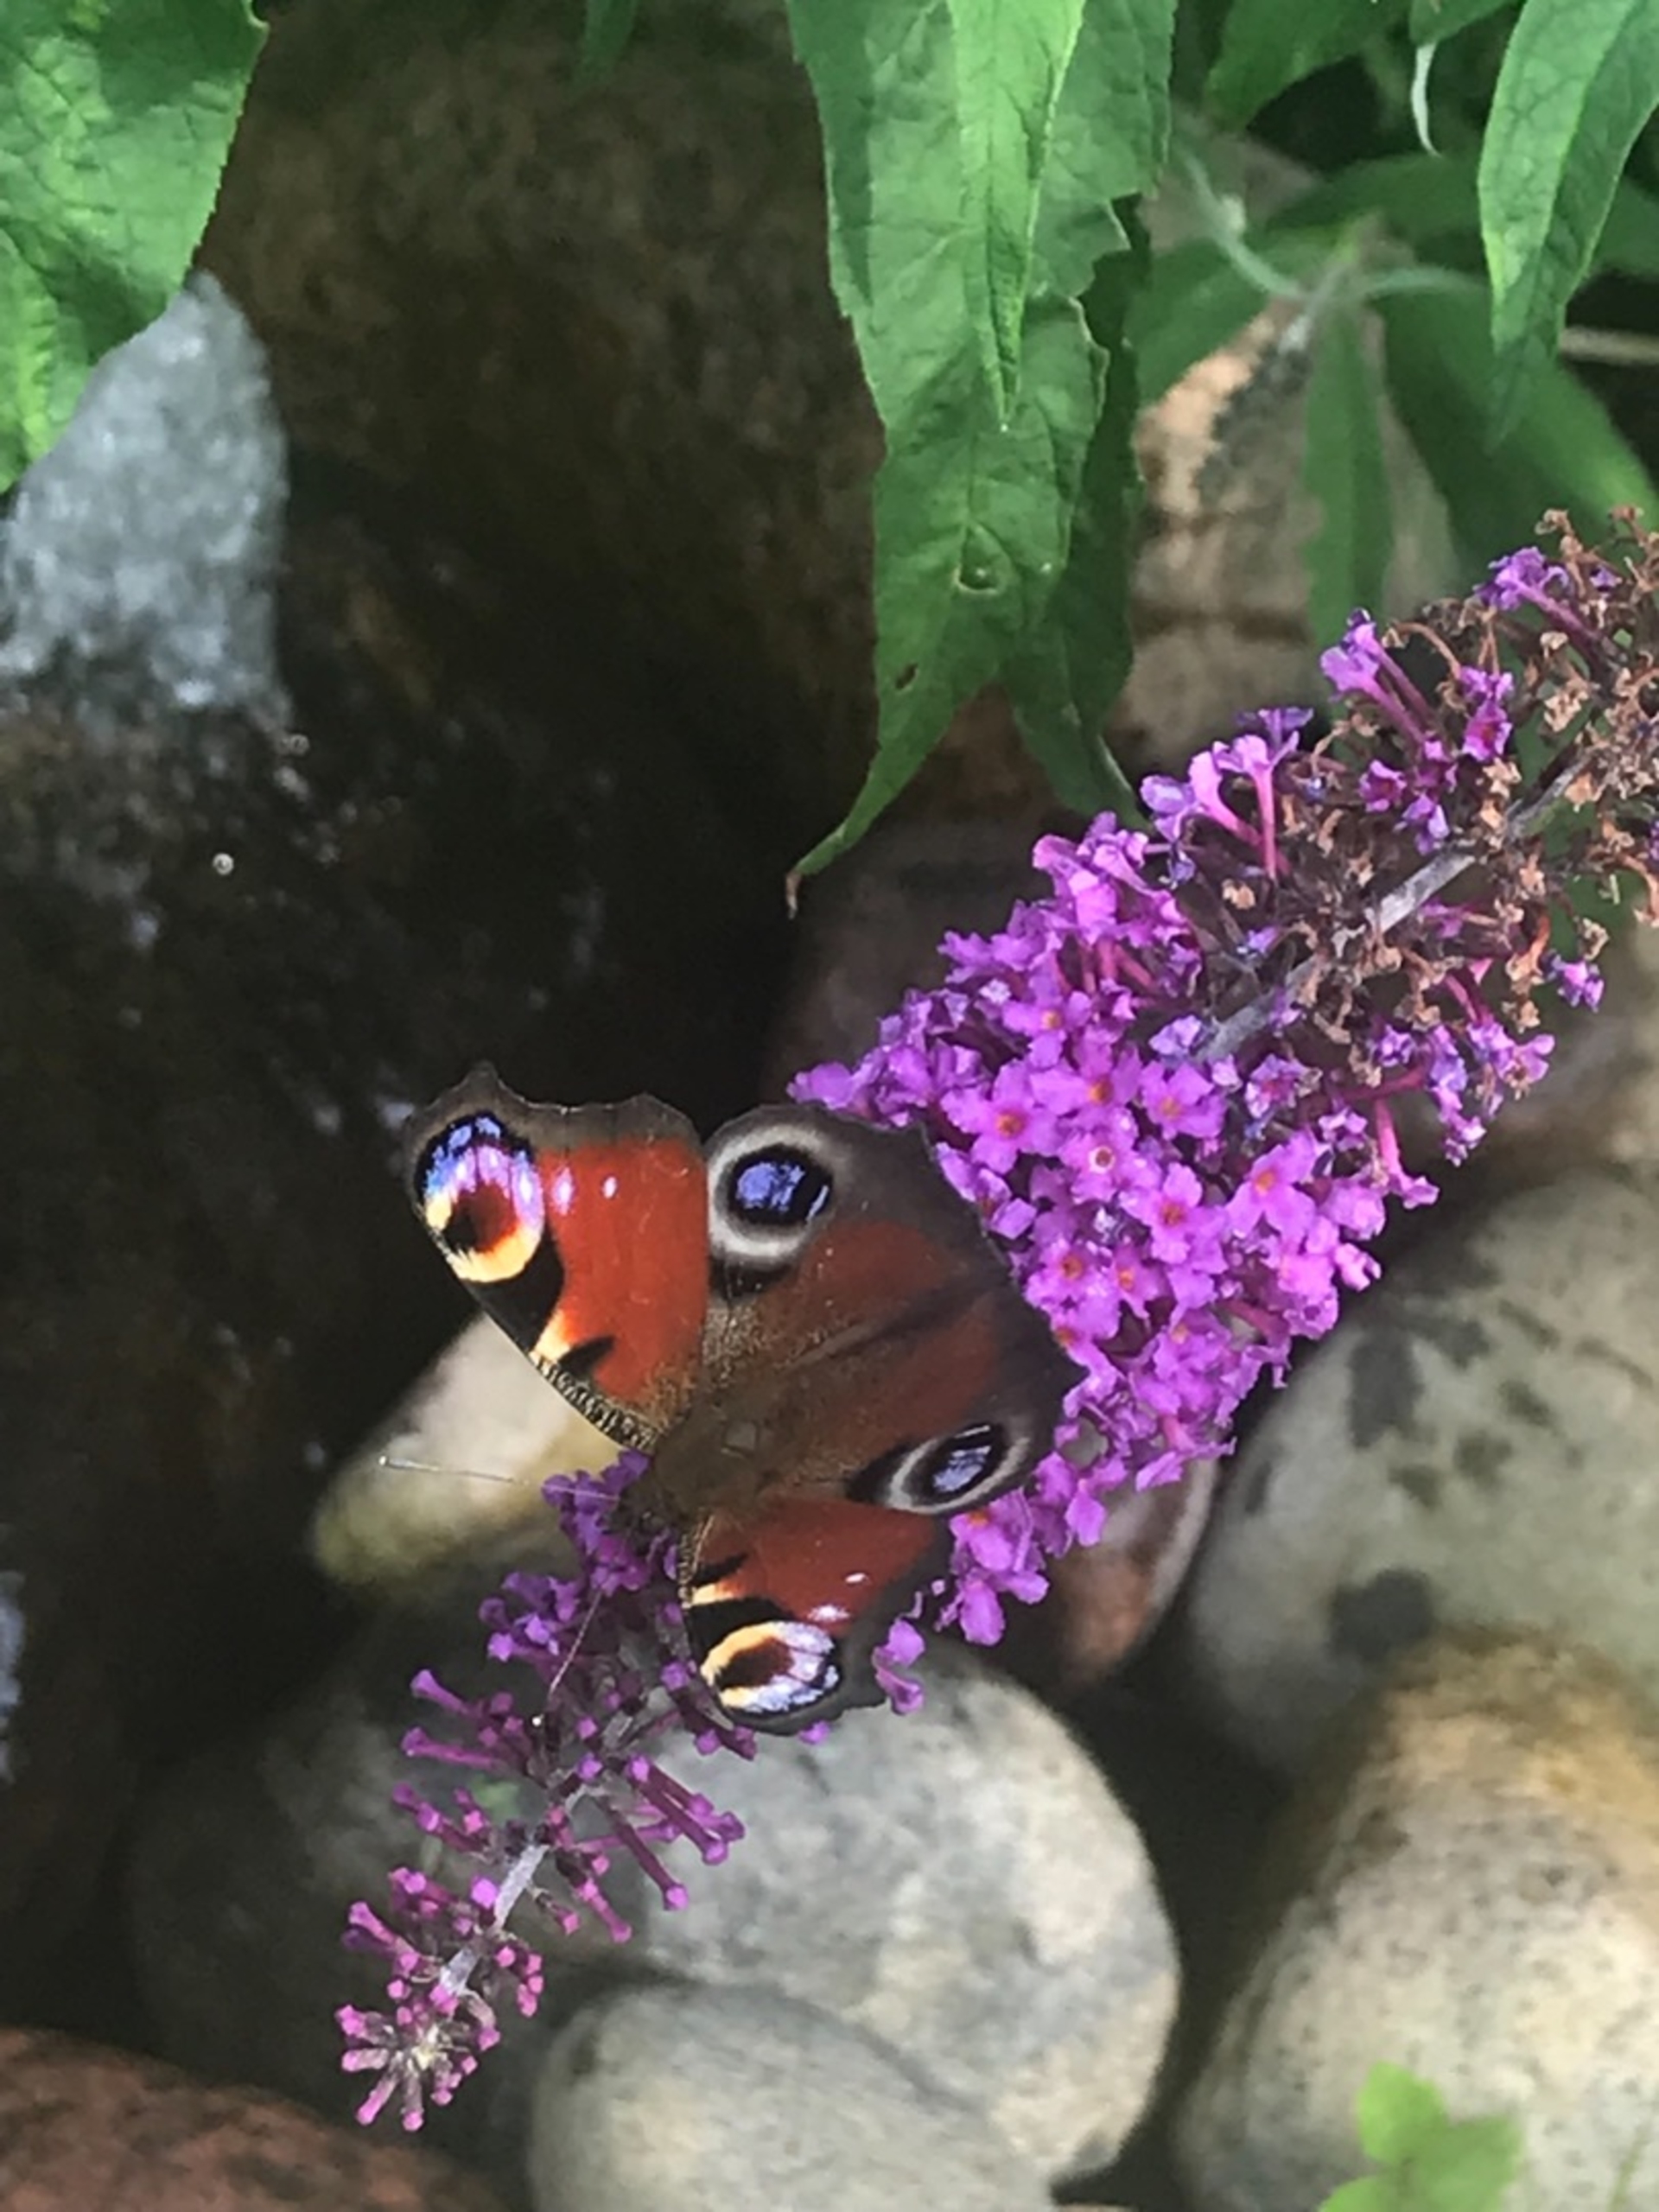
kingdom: Animalia
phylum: Arthropoda
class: Insecta
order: Lepidoptera
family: Nymphalidae
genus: Aglais
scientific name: Aglais io
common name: Dagpåfugleøje
